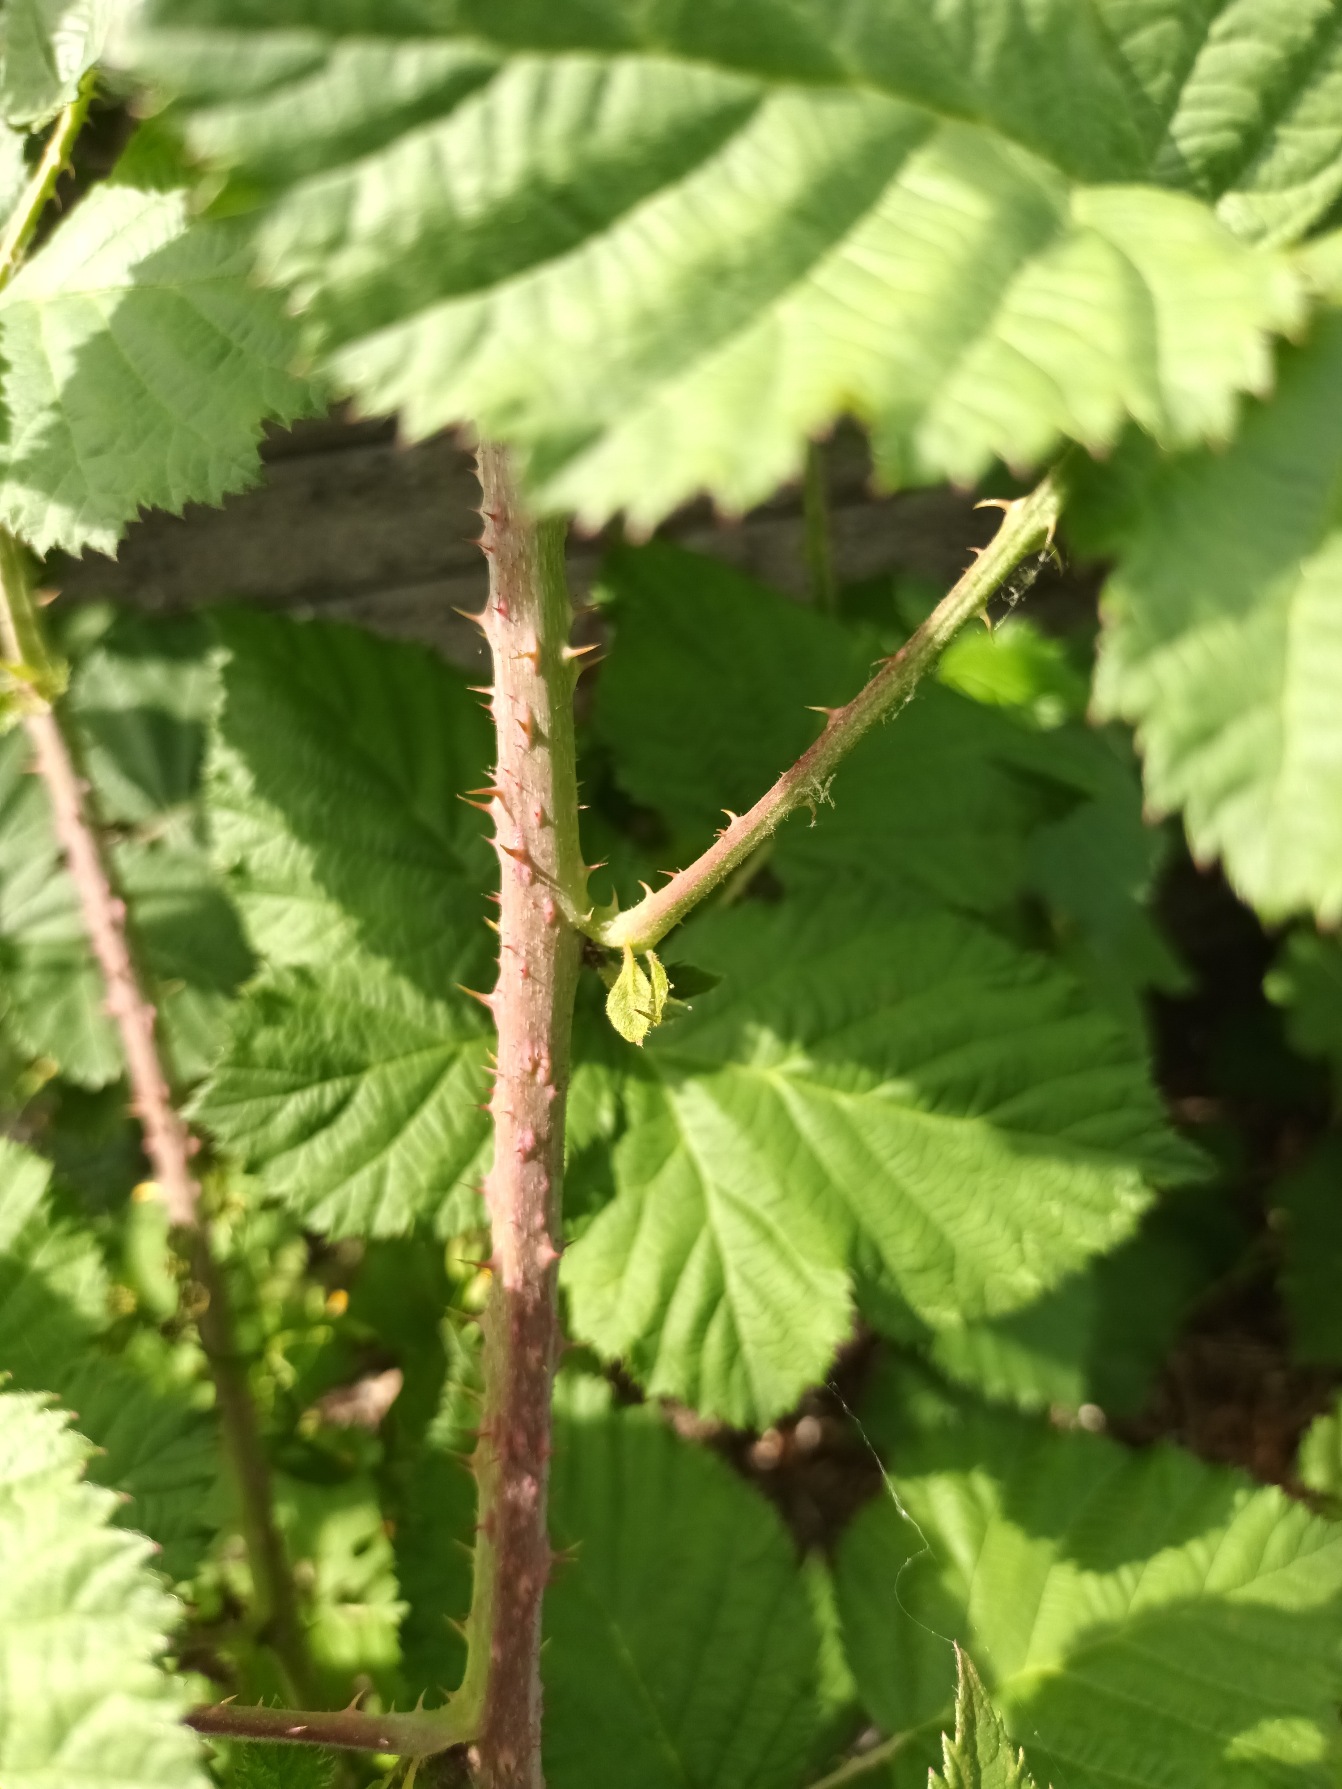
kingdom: Plantae
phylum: Tracheophyta
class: Magnoliopsida
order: Rosales
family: Rosaceae
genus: Rubus
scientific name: Rubus hobroensis
